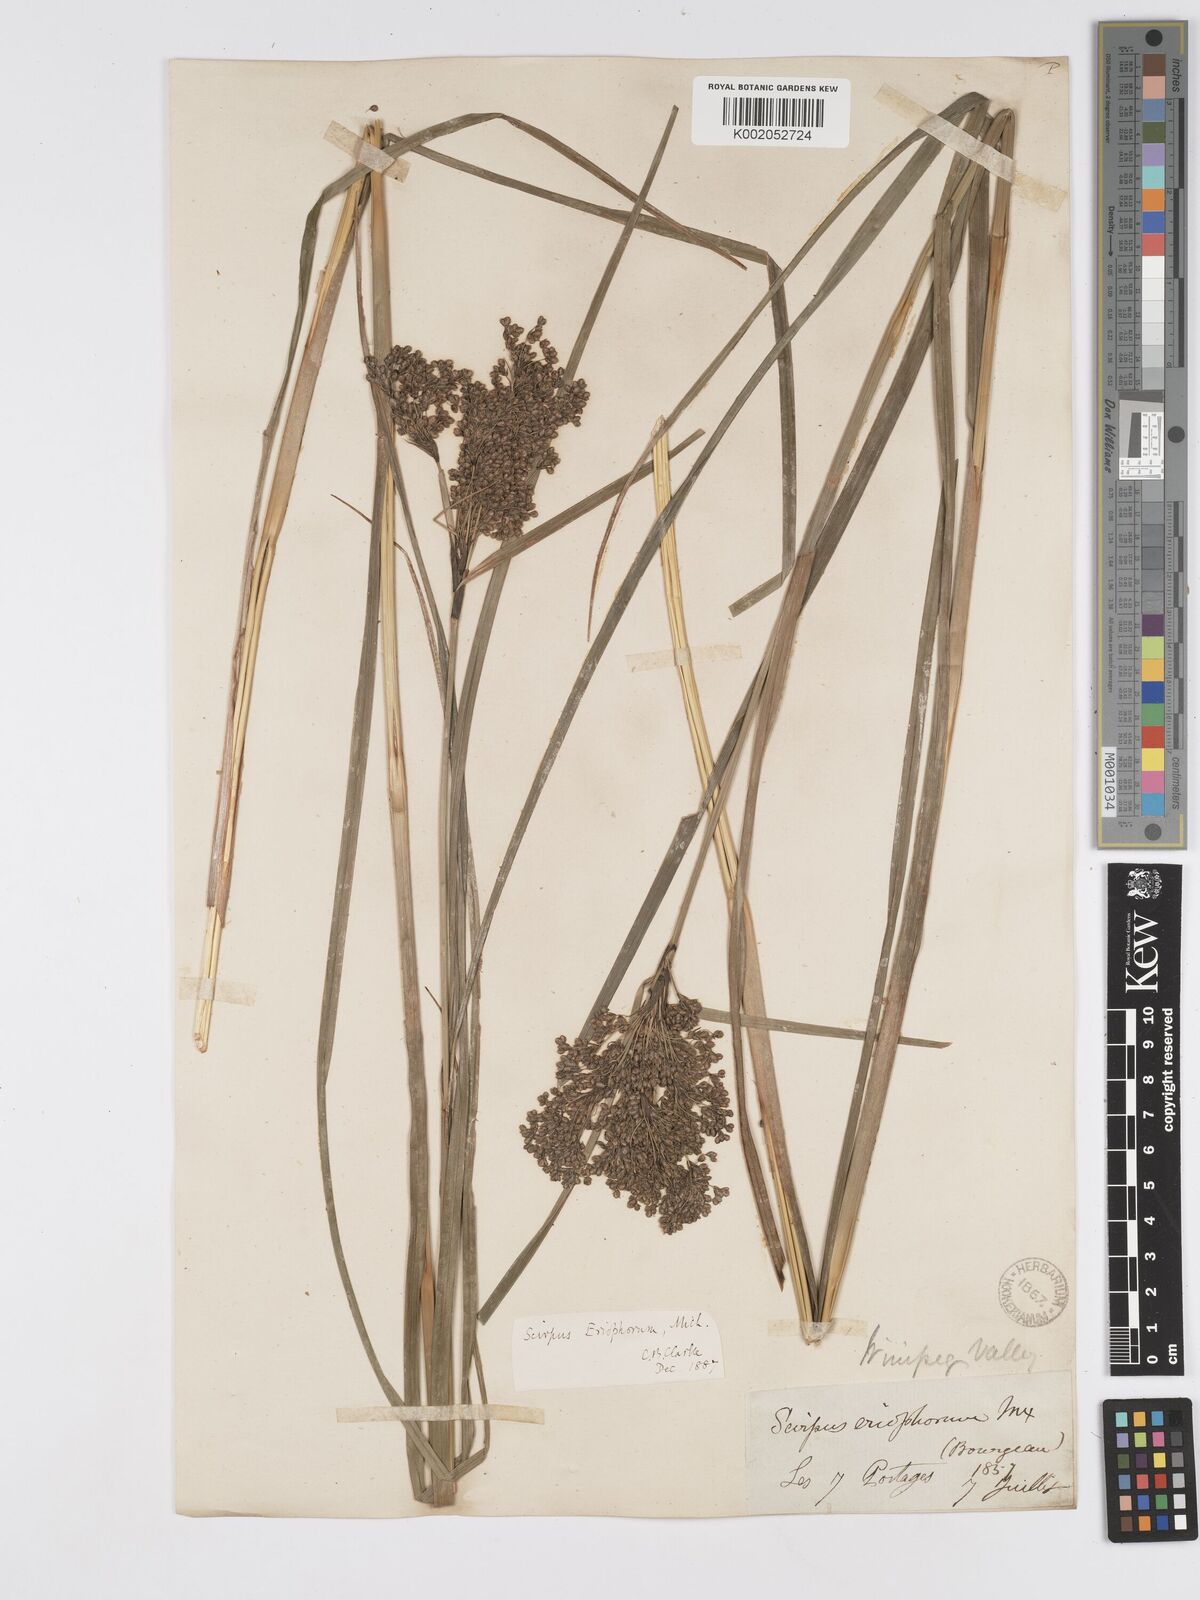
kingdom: Plantae
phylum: Tracheophyta
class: Liliopsida
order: Poales
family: Cyperaceae
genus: Scirpus
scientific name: Scirpus cyperinus
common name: Black-sheathed bulrush
